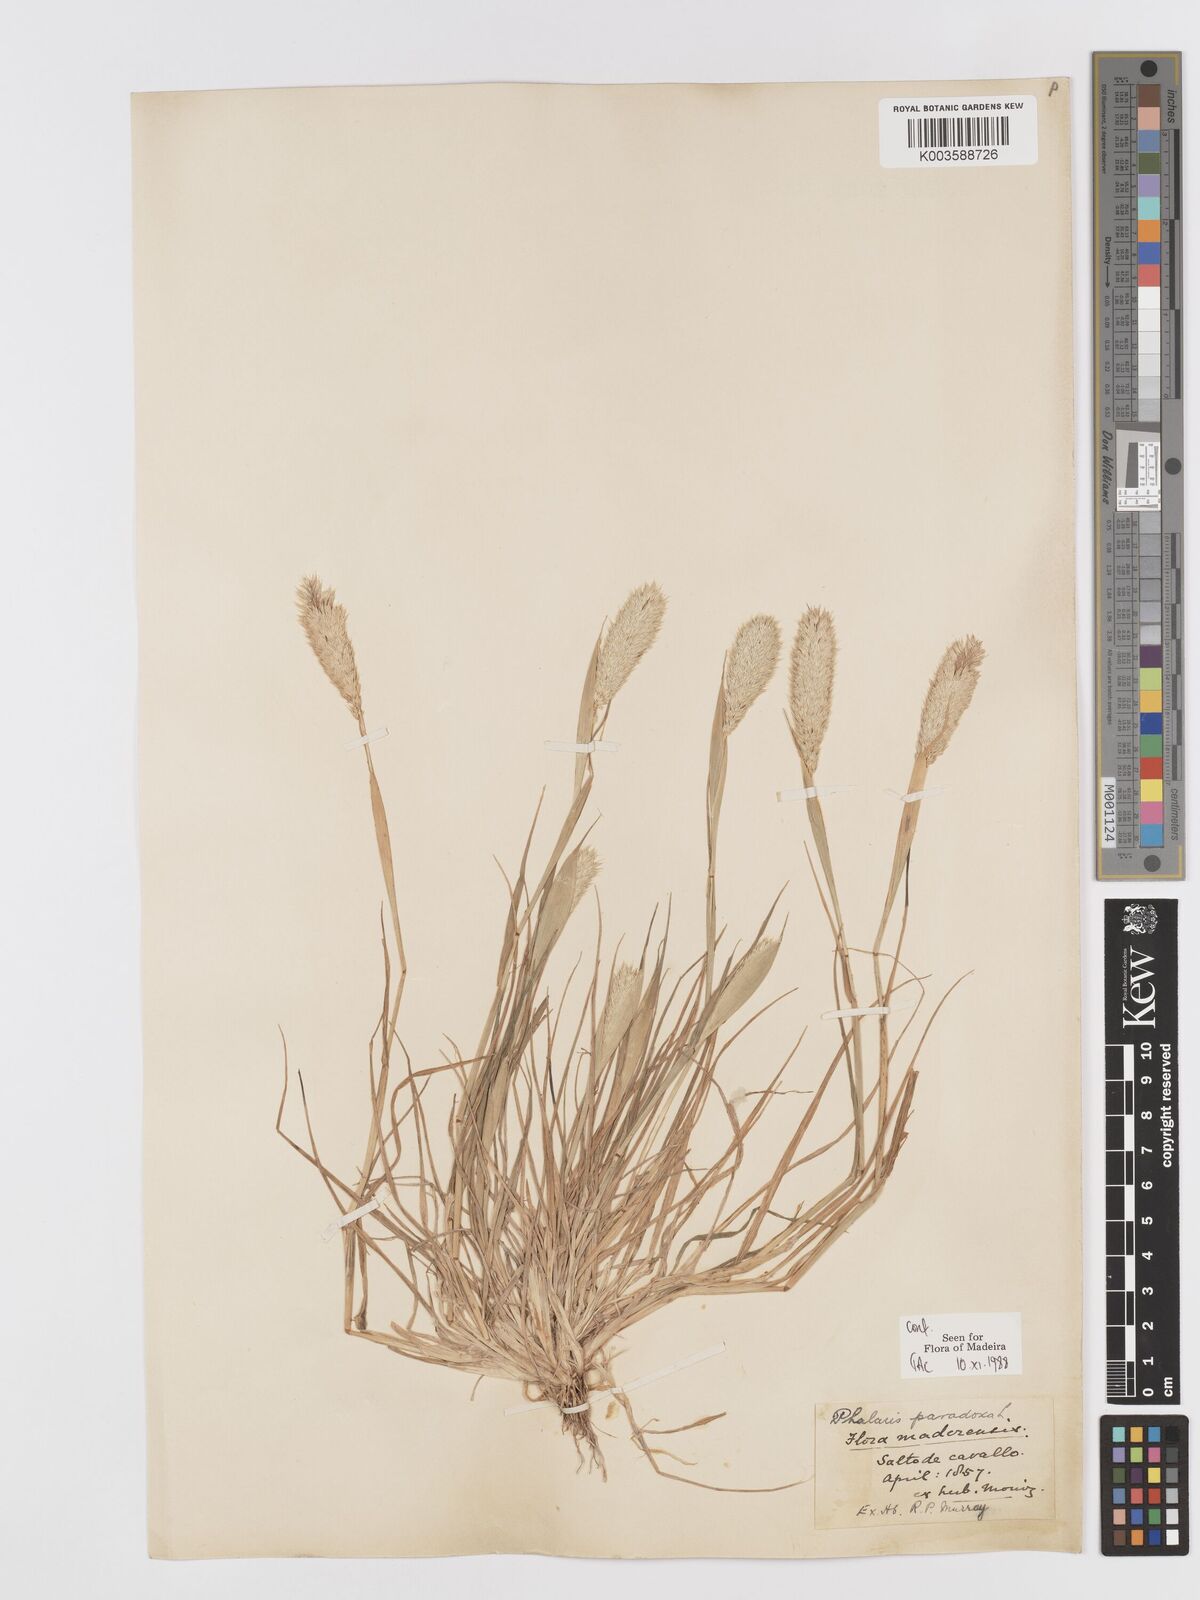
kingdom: Plantae
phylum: Tracheophyta
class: Liliopsida
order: Poales
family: Poaceae
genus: Phalaris
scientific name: Phalaris paradoxa
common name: Awned canary-grass
